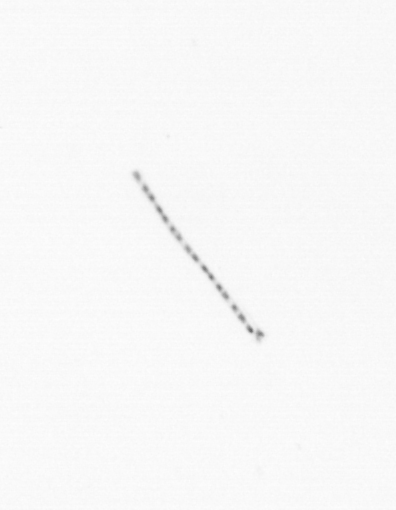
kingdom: Chromista
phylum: Ochrophyta
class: Bacillariophyceae
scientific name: Bacillariophyceae
